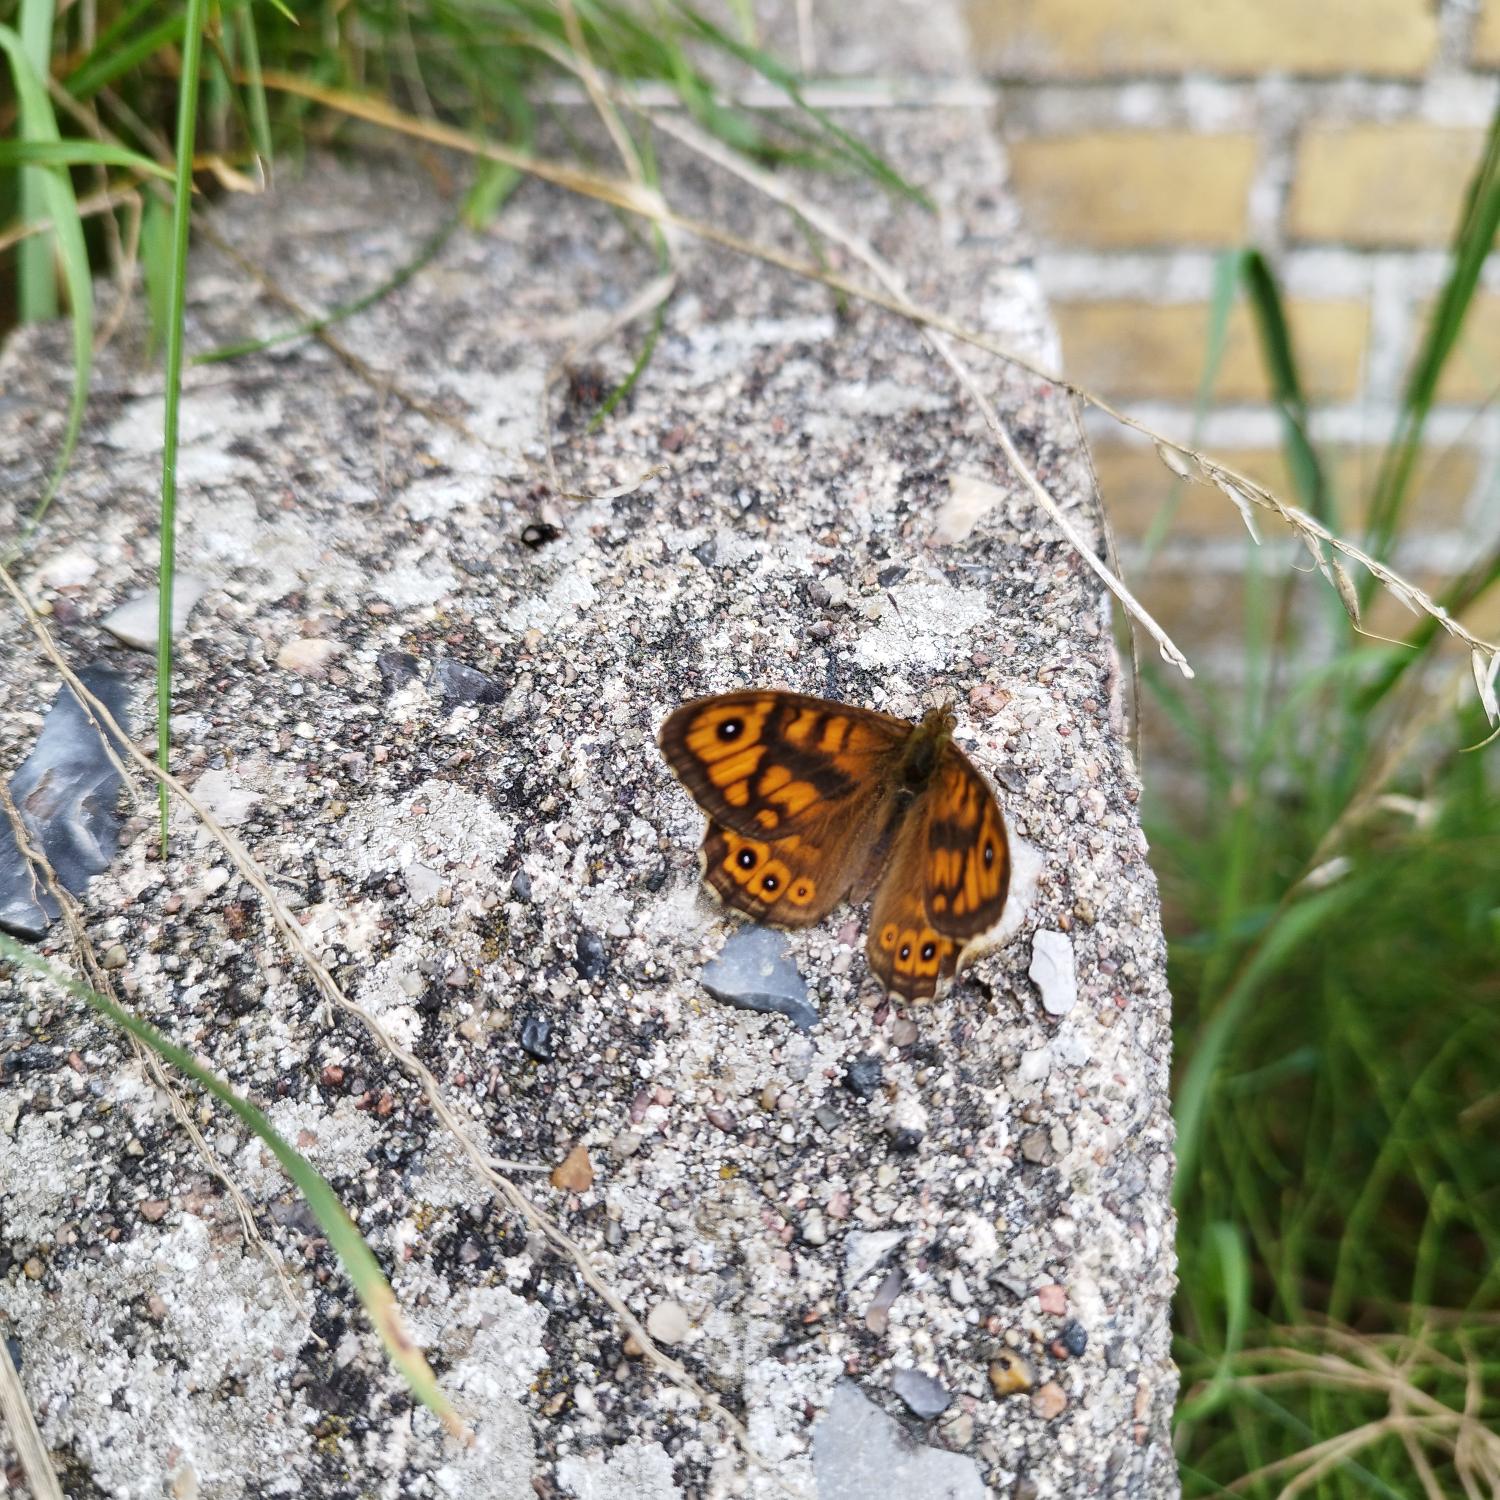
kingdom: Animalia
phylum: Arthropoda
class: Insecta
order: Lepidoptera
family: Nymphalidae
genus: Pararge
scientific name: Pararge Lasiommata megera
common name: Vejrandøje
